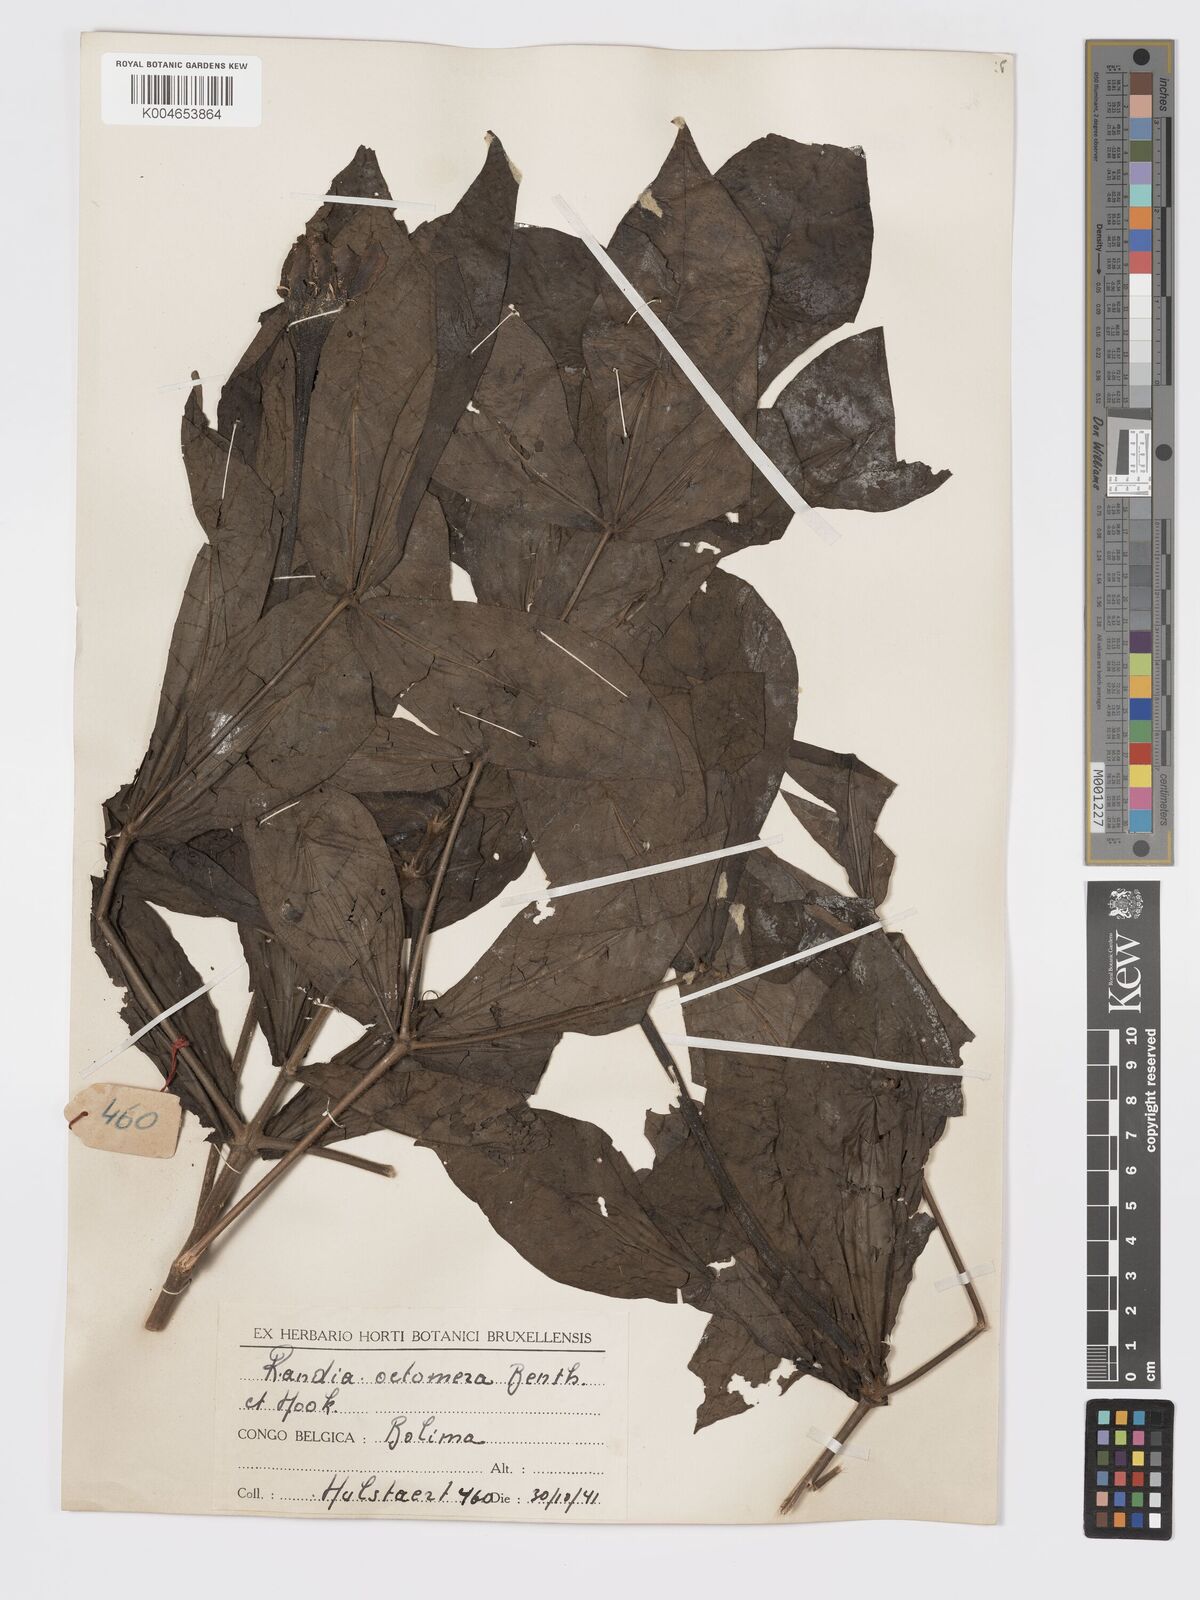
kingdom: Plantae
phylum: Tracheophyta
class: Magnoliopsida
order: Gentianales
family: Rubiaceae
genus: Rothmannia
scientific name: Rothmannia octomera
